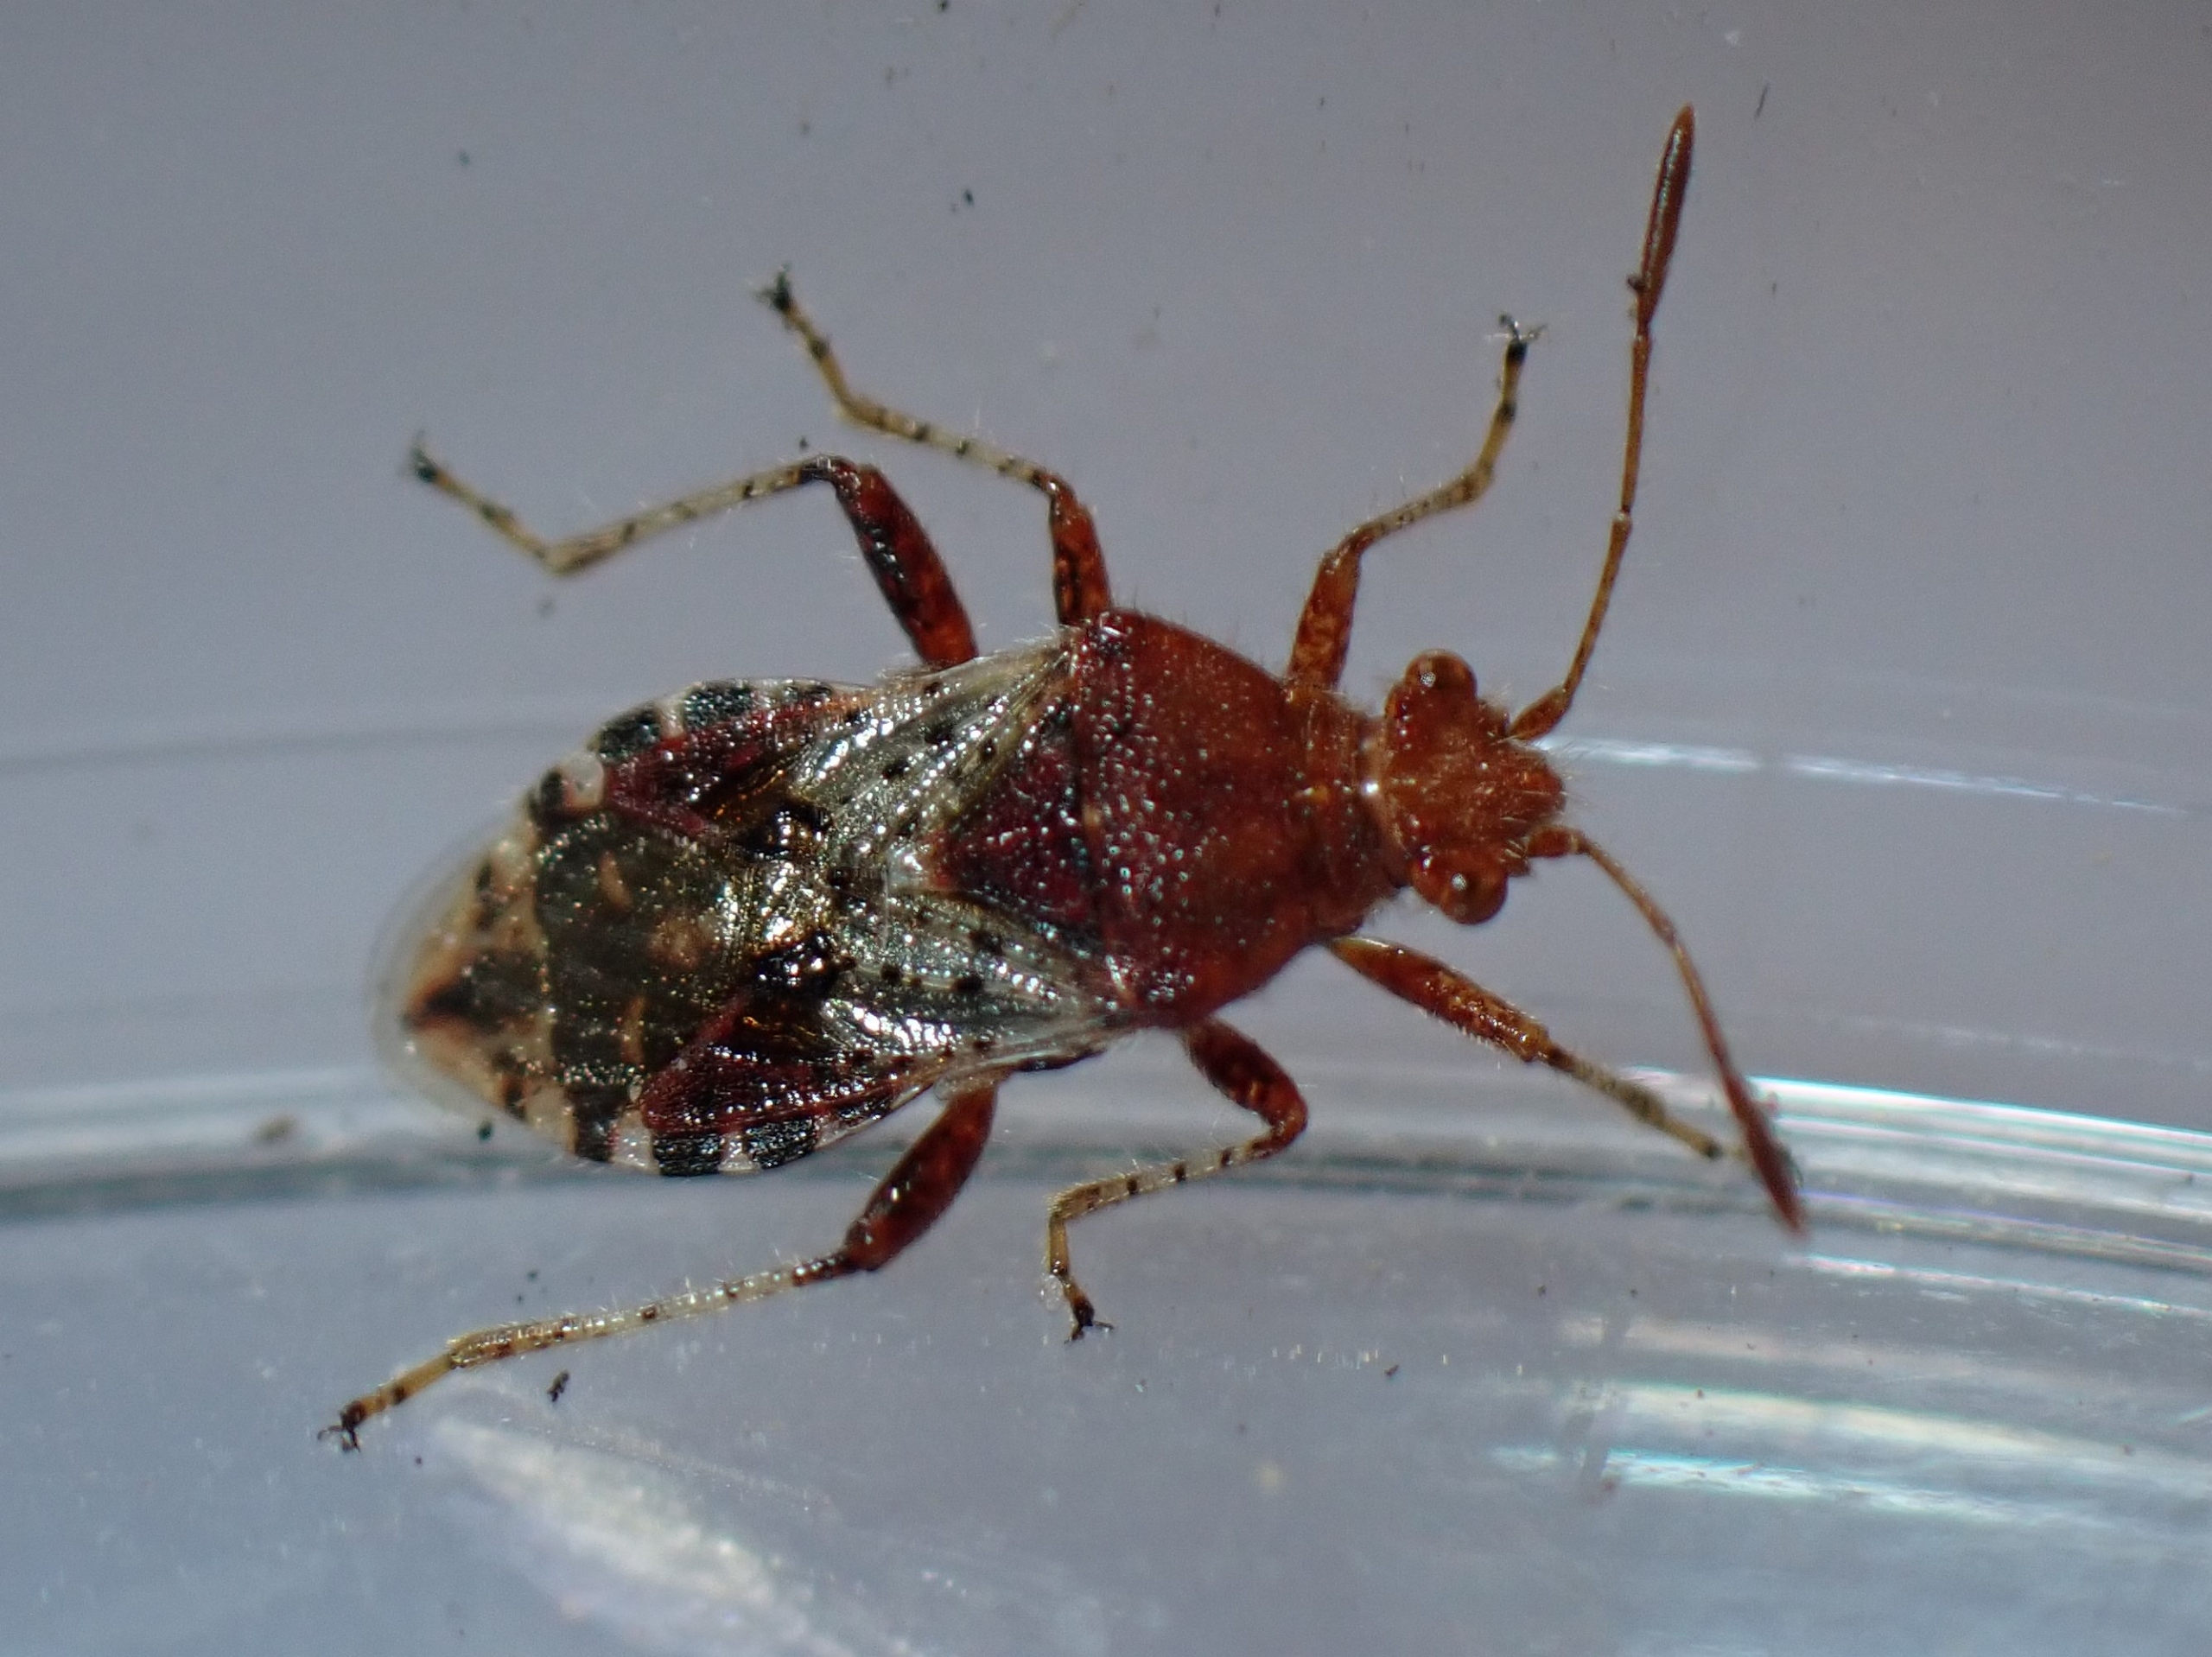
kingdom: Animalia
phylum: Arthropoda
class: Insecta
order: Hemiptera
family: Rhopalidae
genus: Rhopalus
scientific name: Rhopalus subrufus
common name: Skovkanttæge
